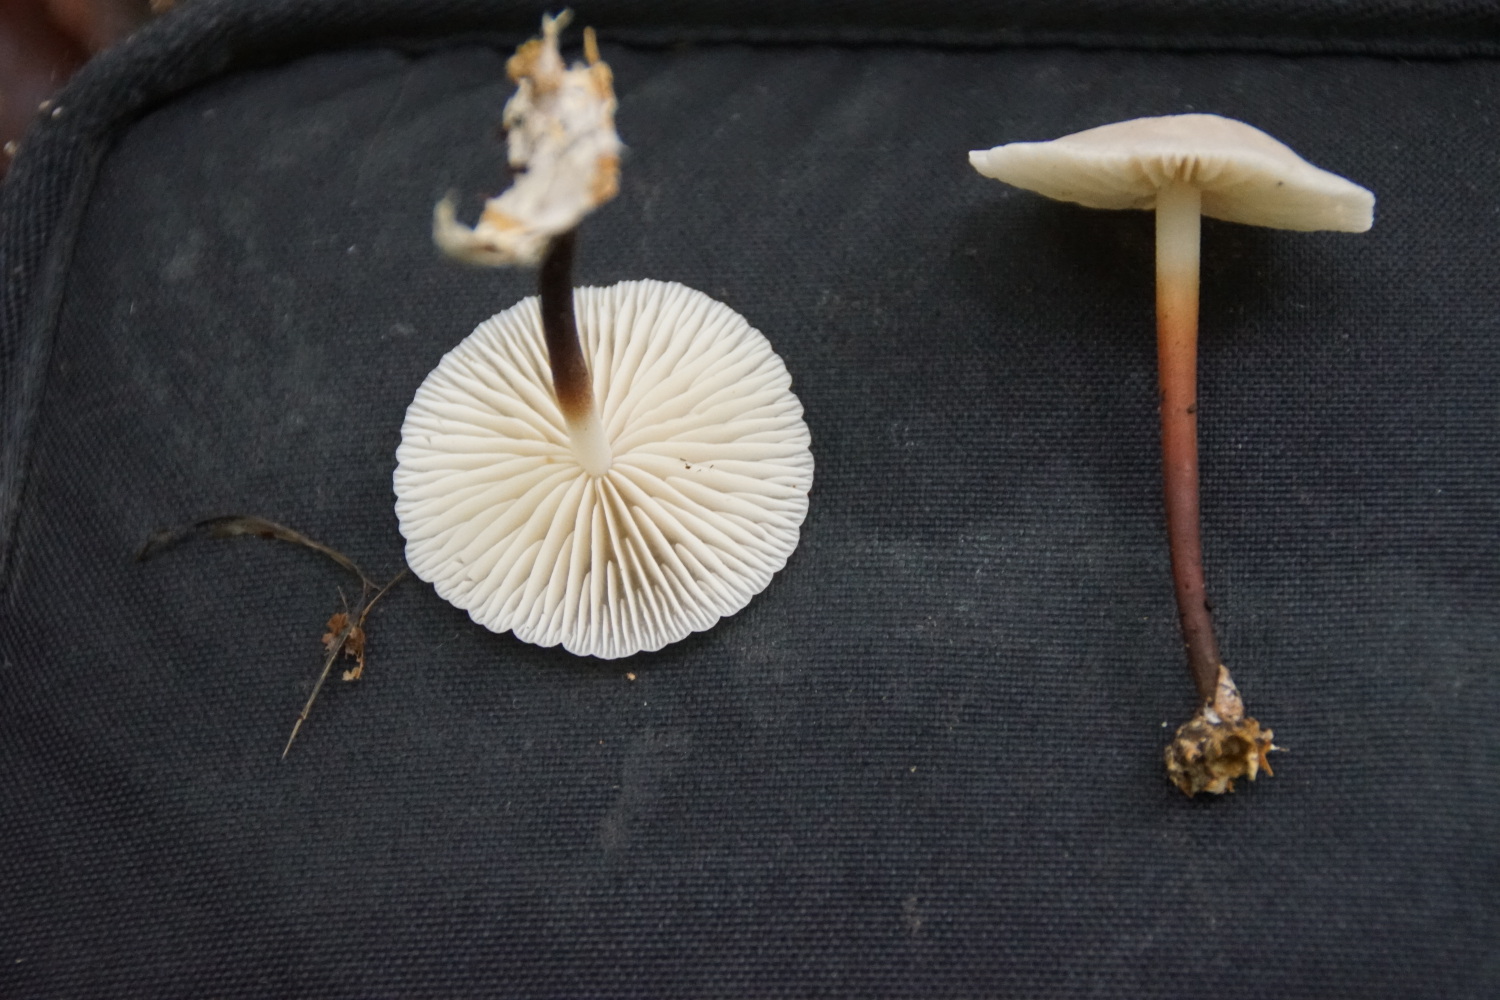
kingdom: Fungi
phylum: Basidiomycota
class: Agaricomycetes
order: Agaricales
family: Marasmiaceae
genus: Marasmius
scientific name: Marasmius wynneae
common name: hvælvet bruskhat
